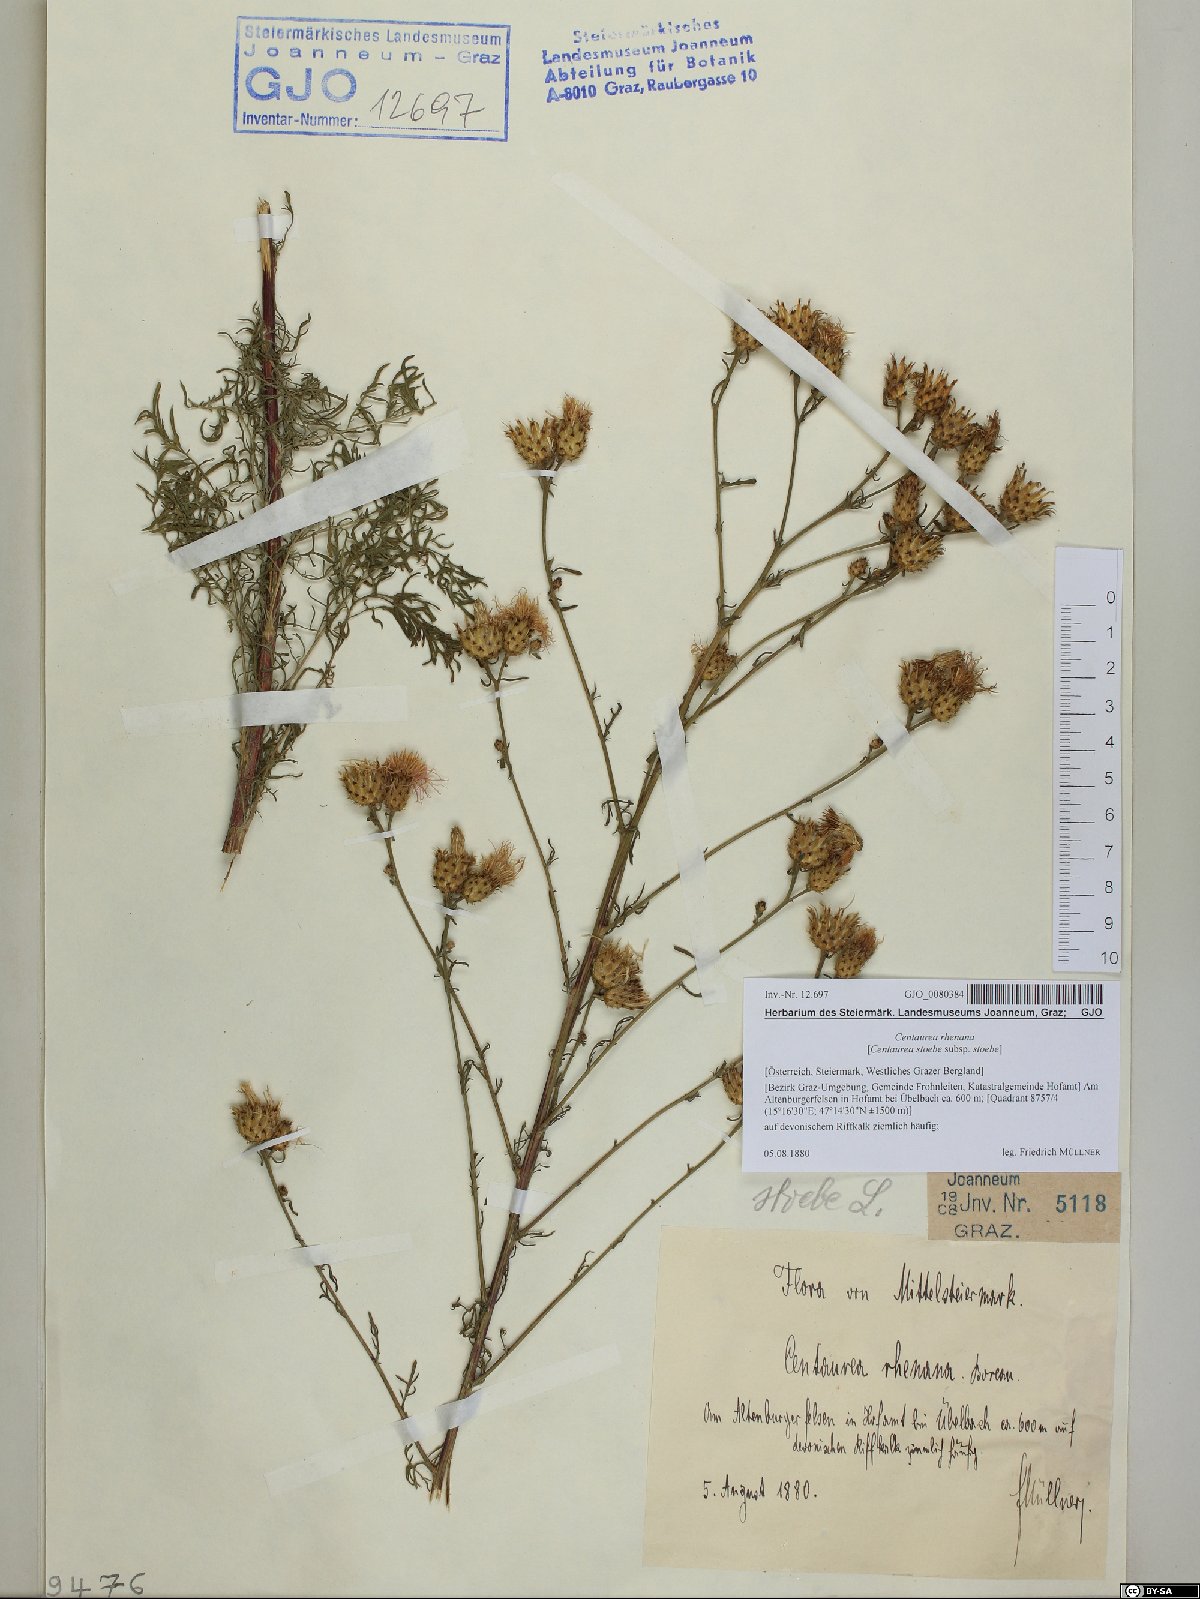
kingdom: Plantae
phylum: Tracheophyta
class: Magnoliopsida
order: Asterales
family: Asteraceae
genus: Centaurea
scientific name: Centaurea stoebe
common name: Spotted knapweed
